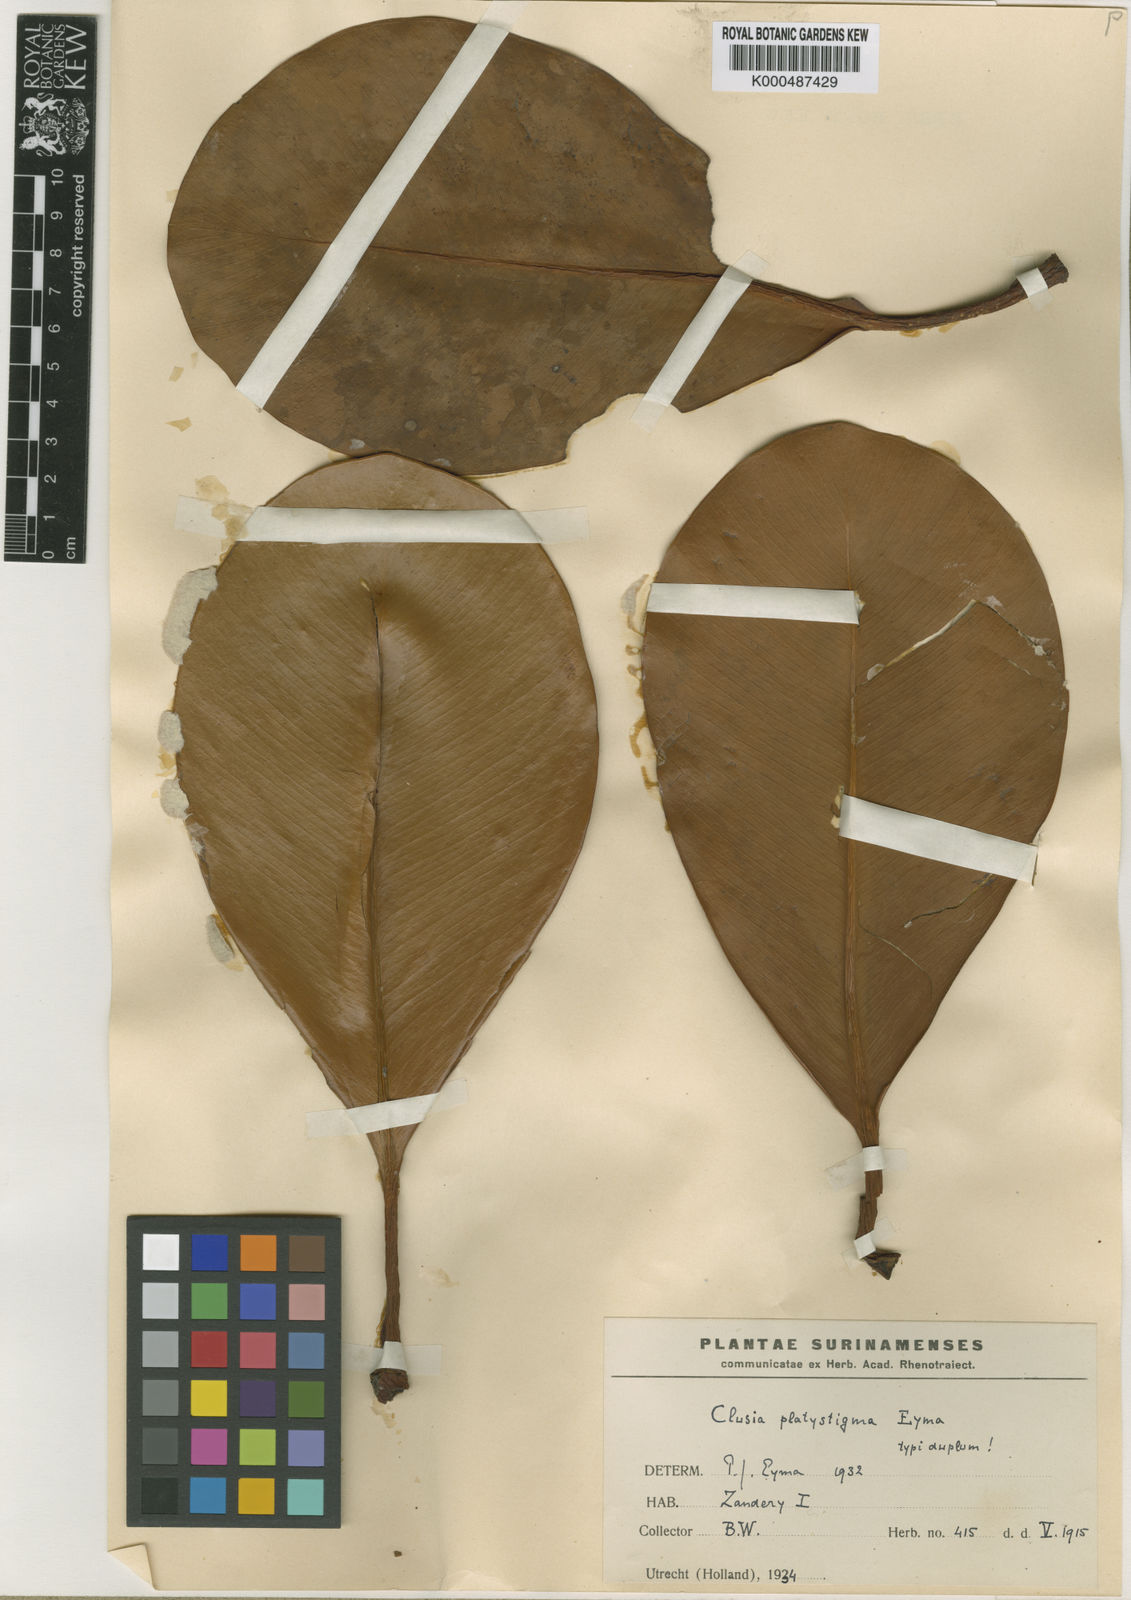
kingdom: Plantae
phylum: Tracheophyta
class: Magnoliopsida
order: Malpighiales
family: Clusiaceae
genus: Clusia
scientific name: Clusia platystigma
